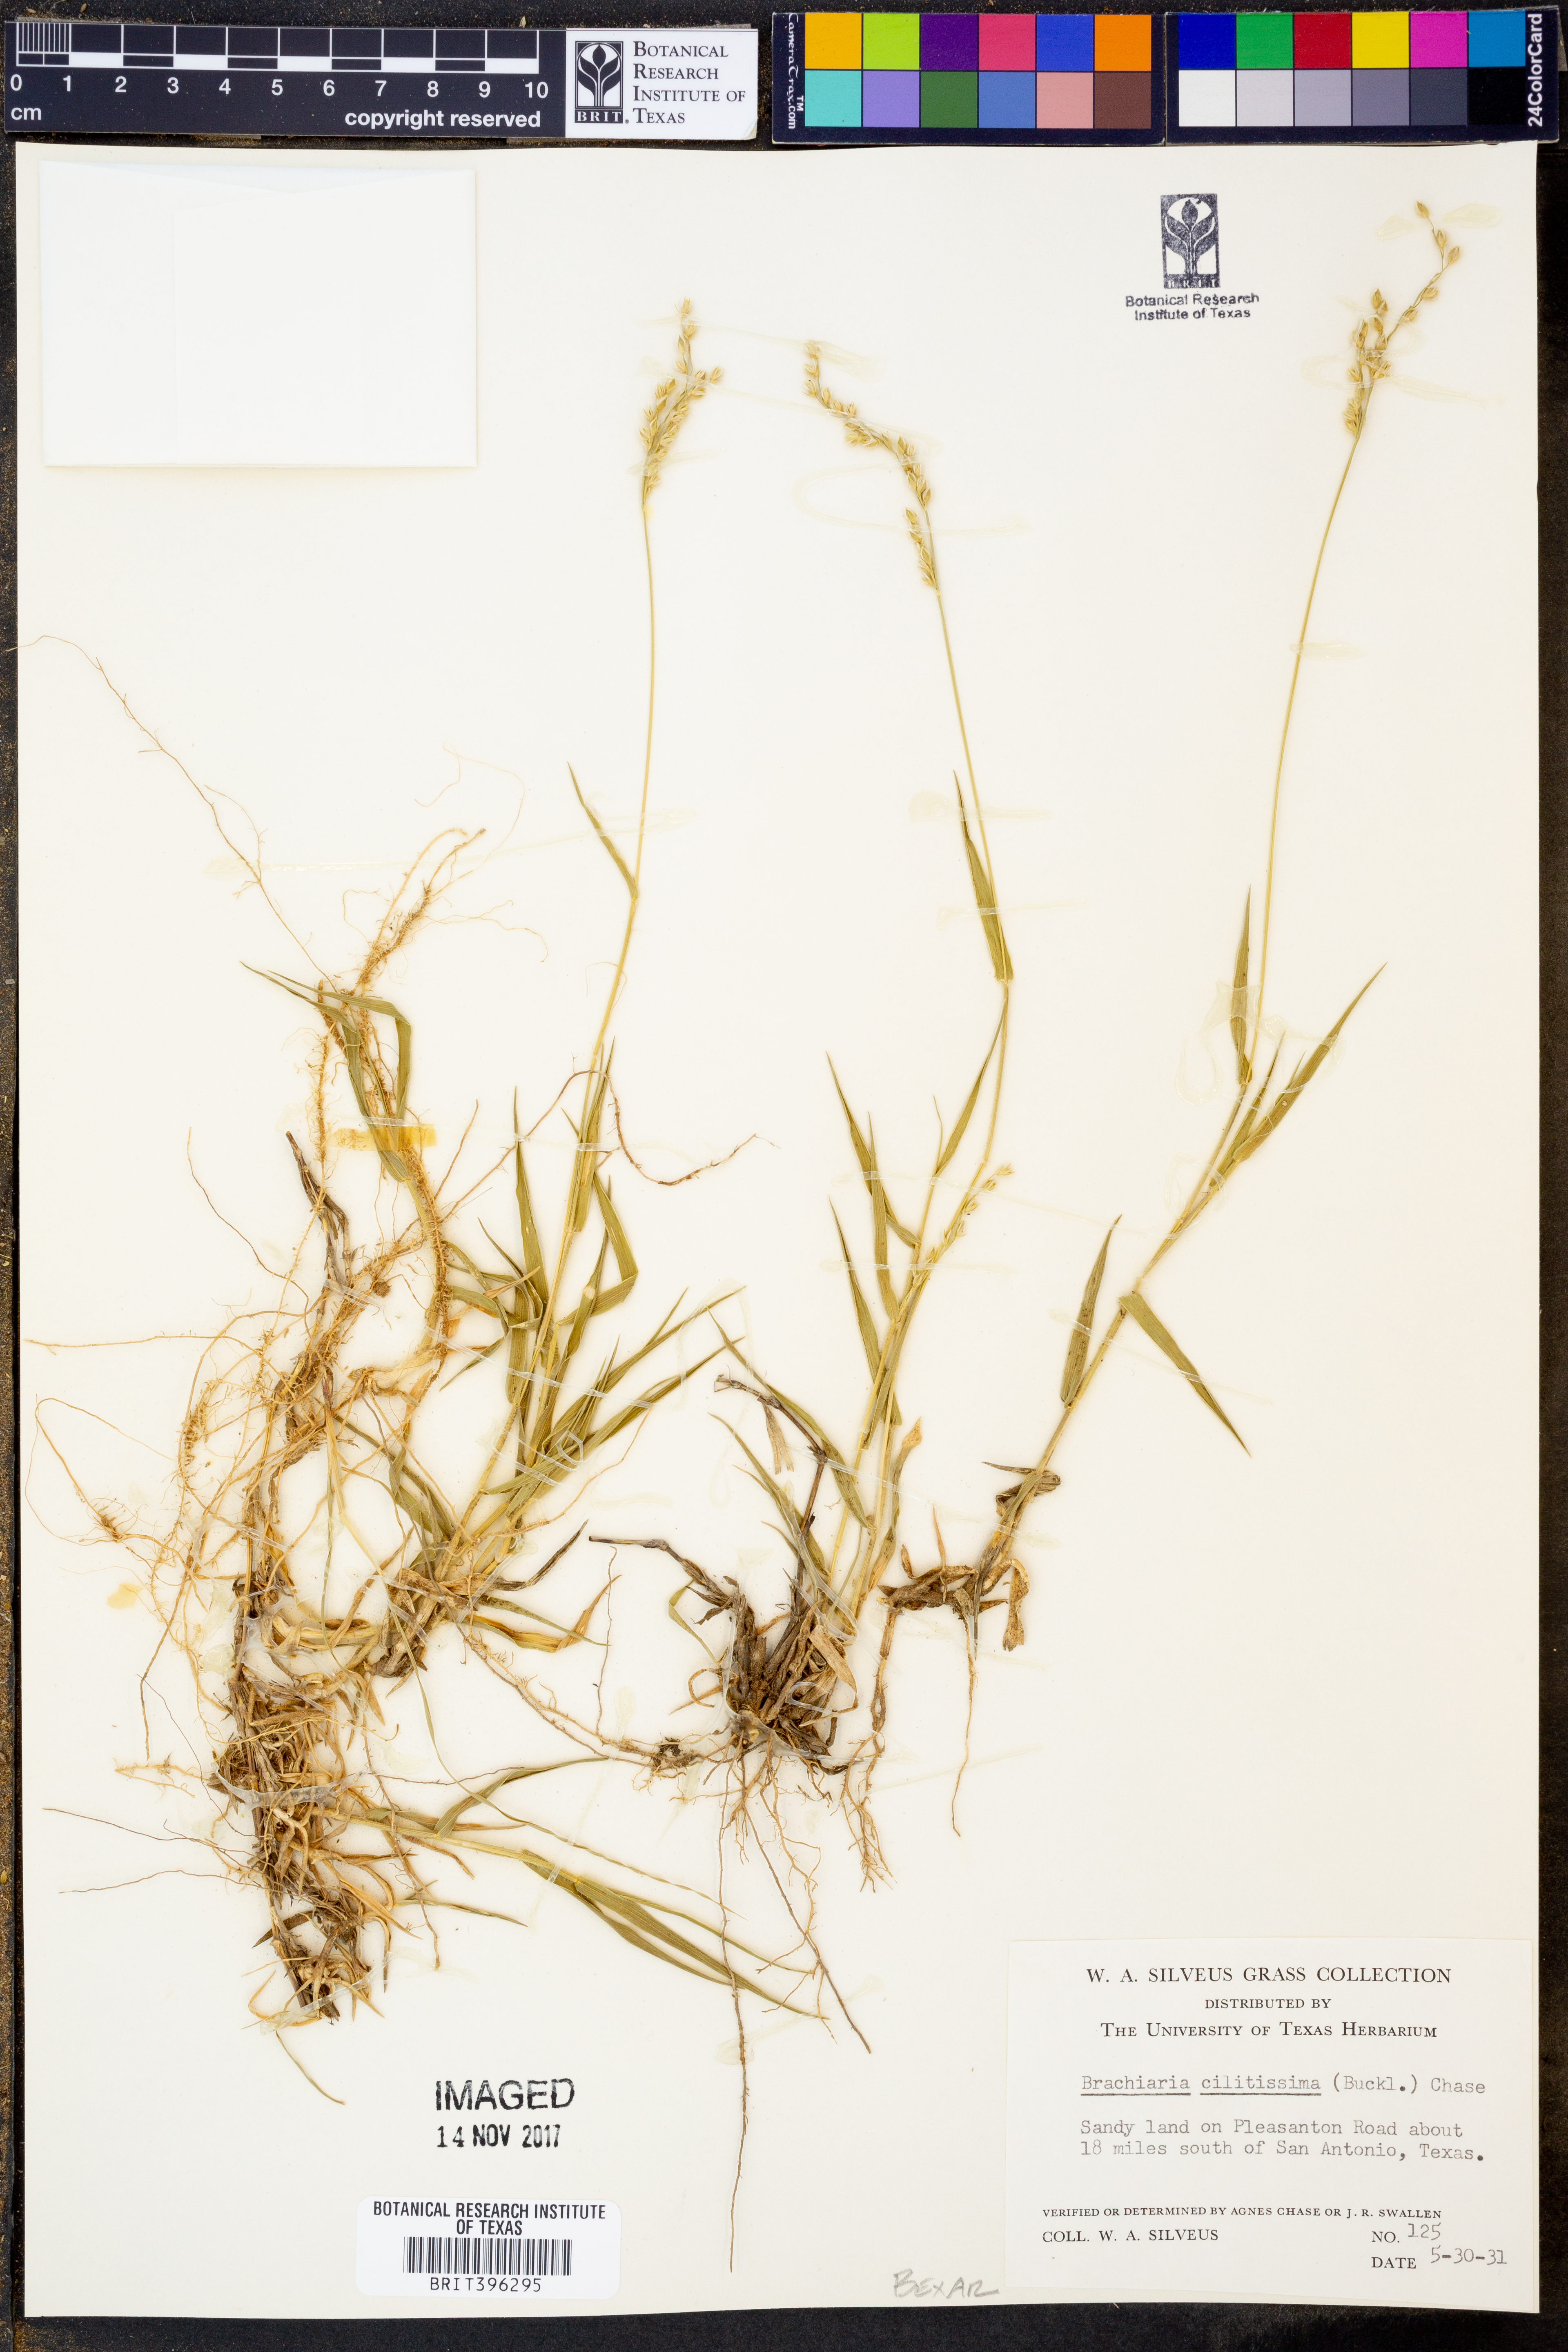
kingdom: Plantae
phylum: Tracheophyta
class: Liliopsida
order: Poales
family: Poaceae
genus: Urochloa
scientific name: Urochloa ciliatissima
